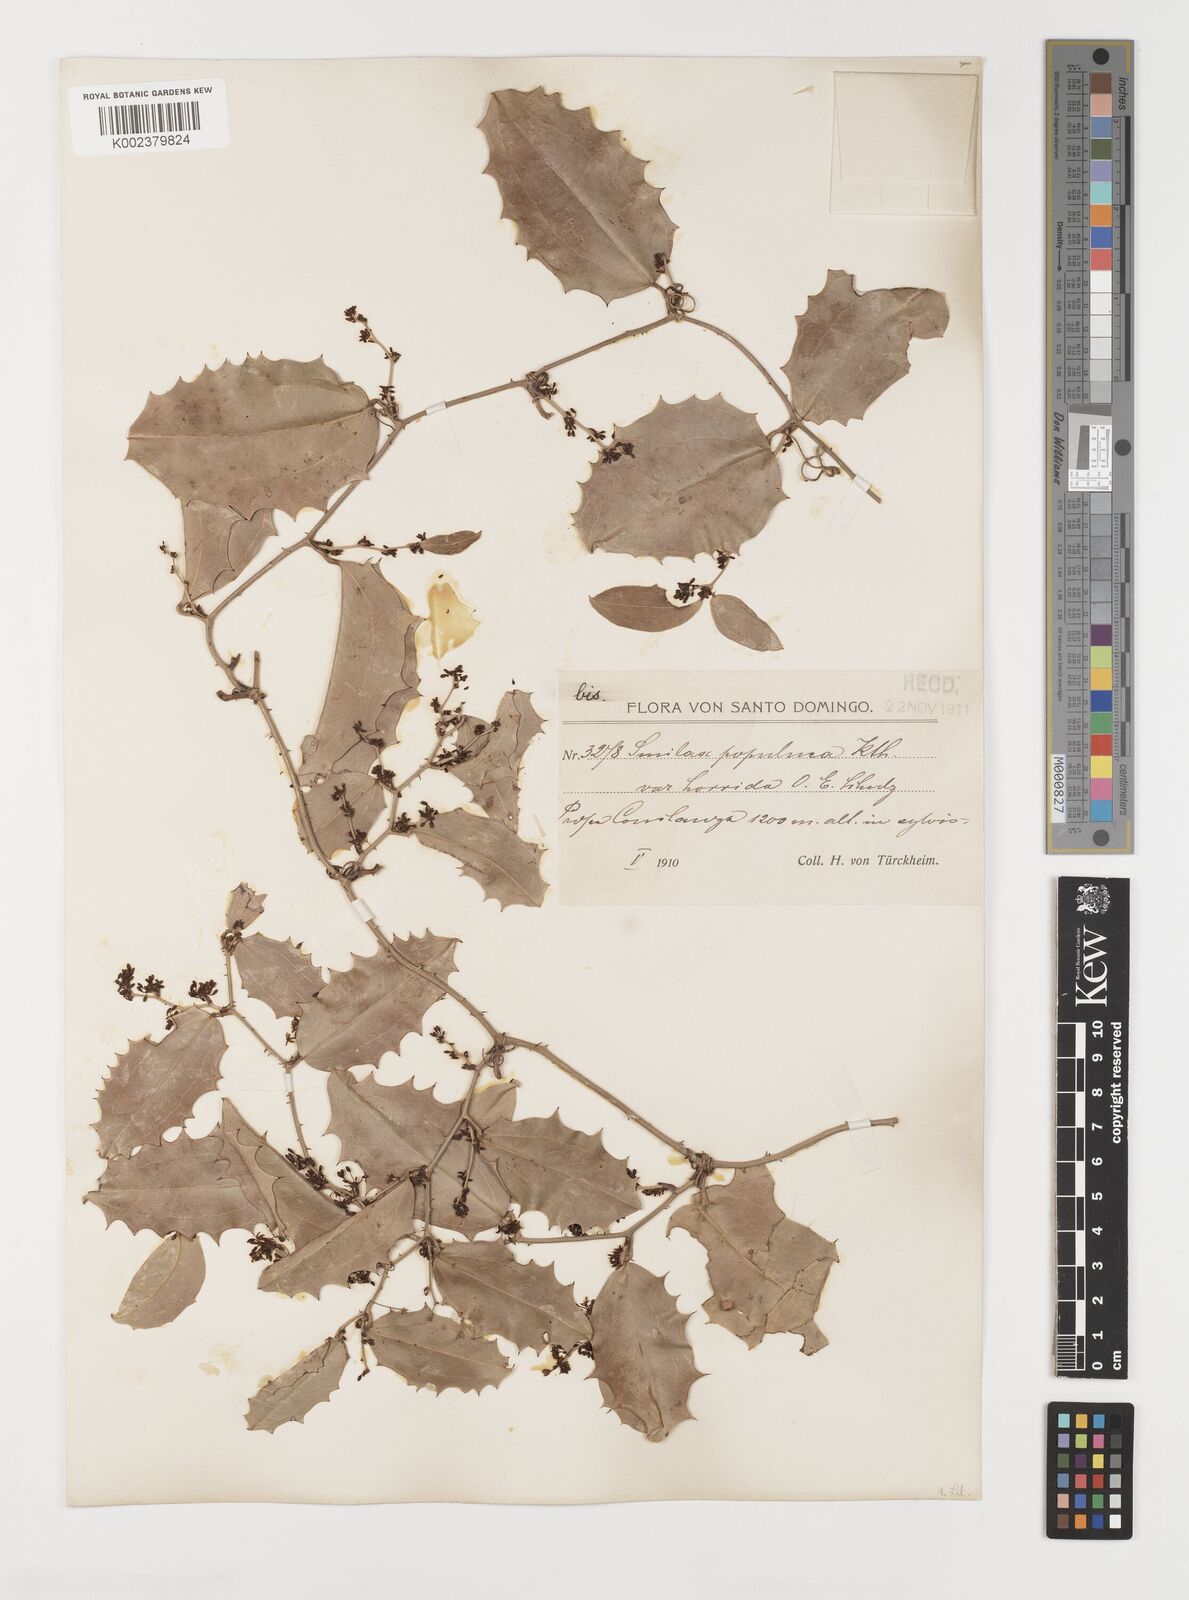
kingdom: Plantae
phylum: Tracheophyta
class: Liliopsida
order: Liliales
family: Smilacaceae
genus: Smilax
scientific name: Smilax populnea
